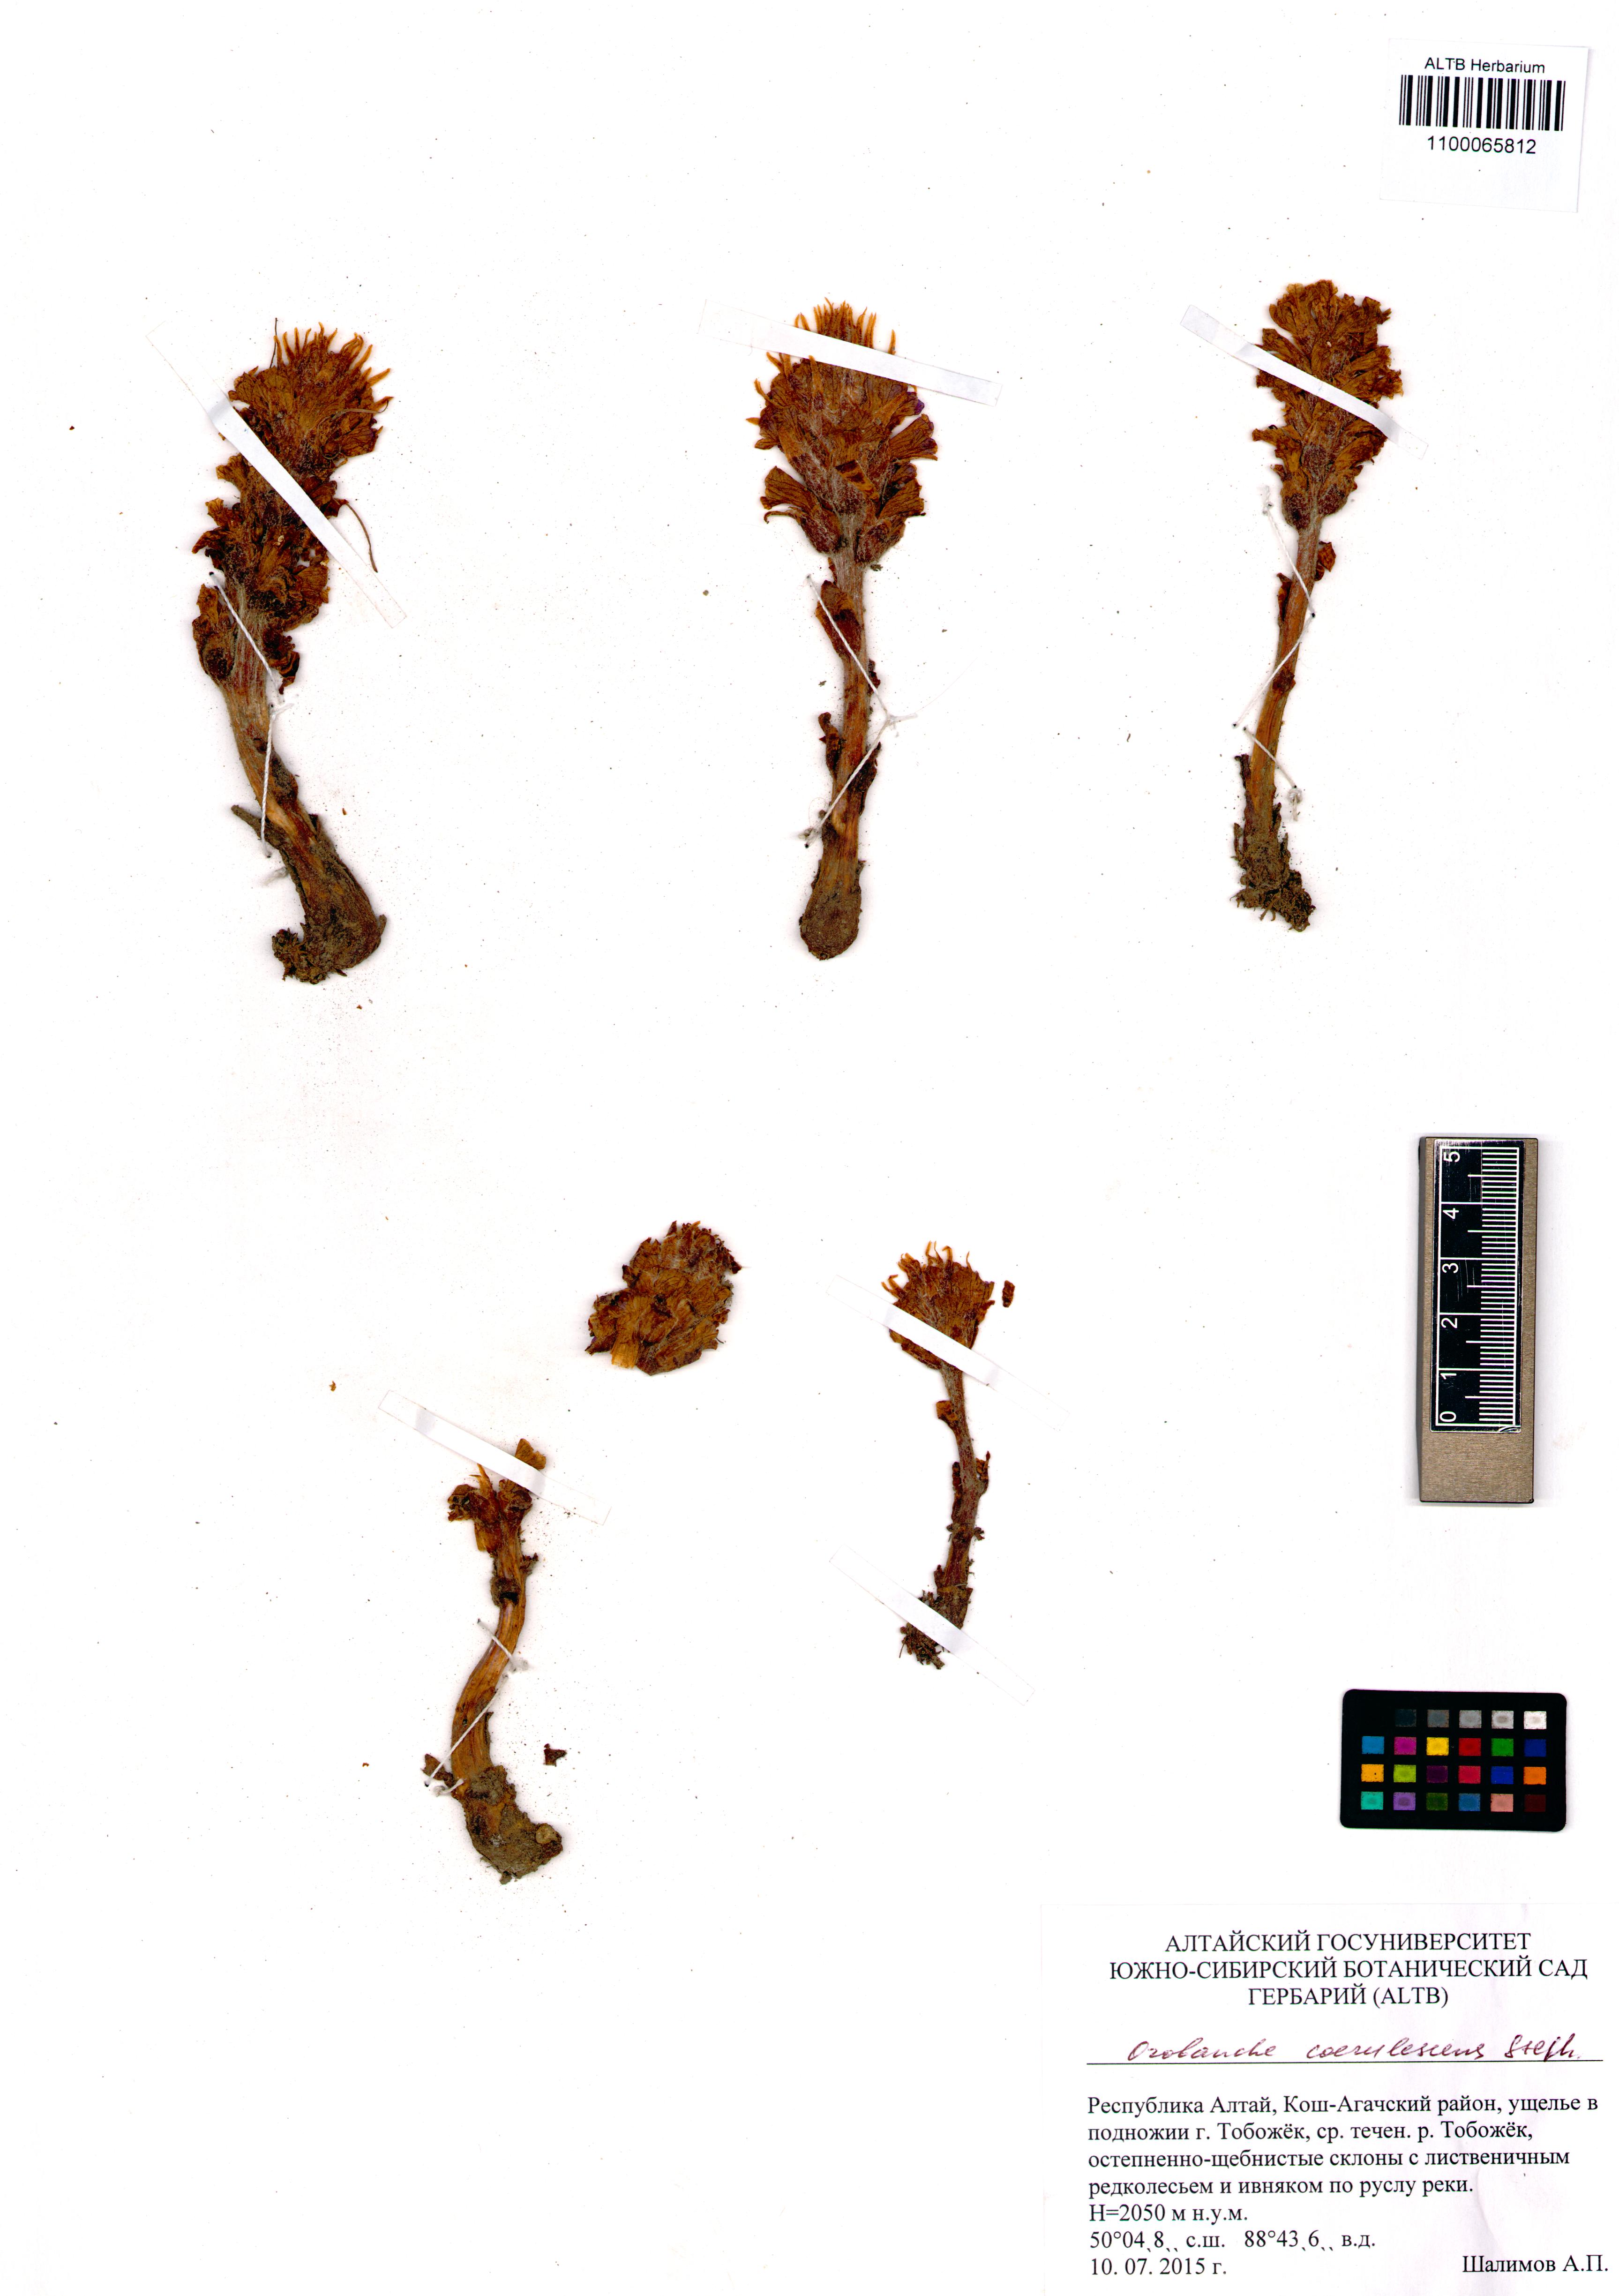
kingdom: Plantae
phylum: Tracheophyta
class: Magnoliopsida
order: Lamiales
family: Orobanchaceae
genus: Orobanche
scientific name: Orobanche coerulescens
